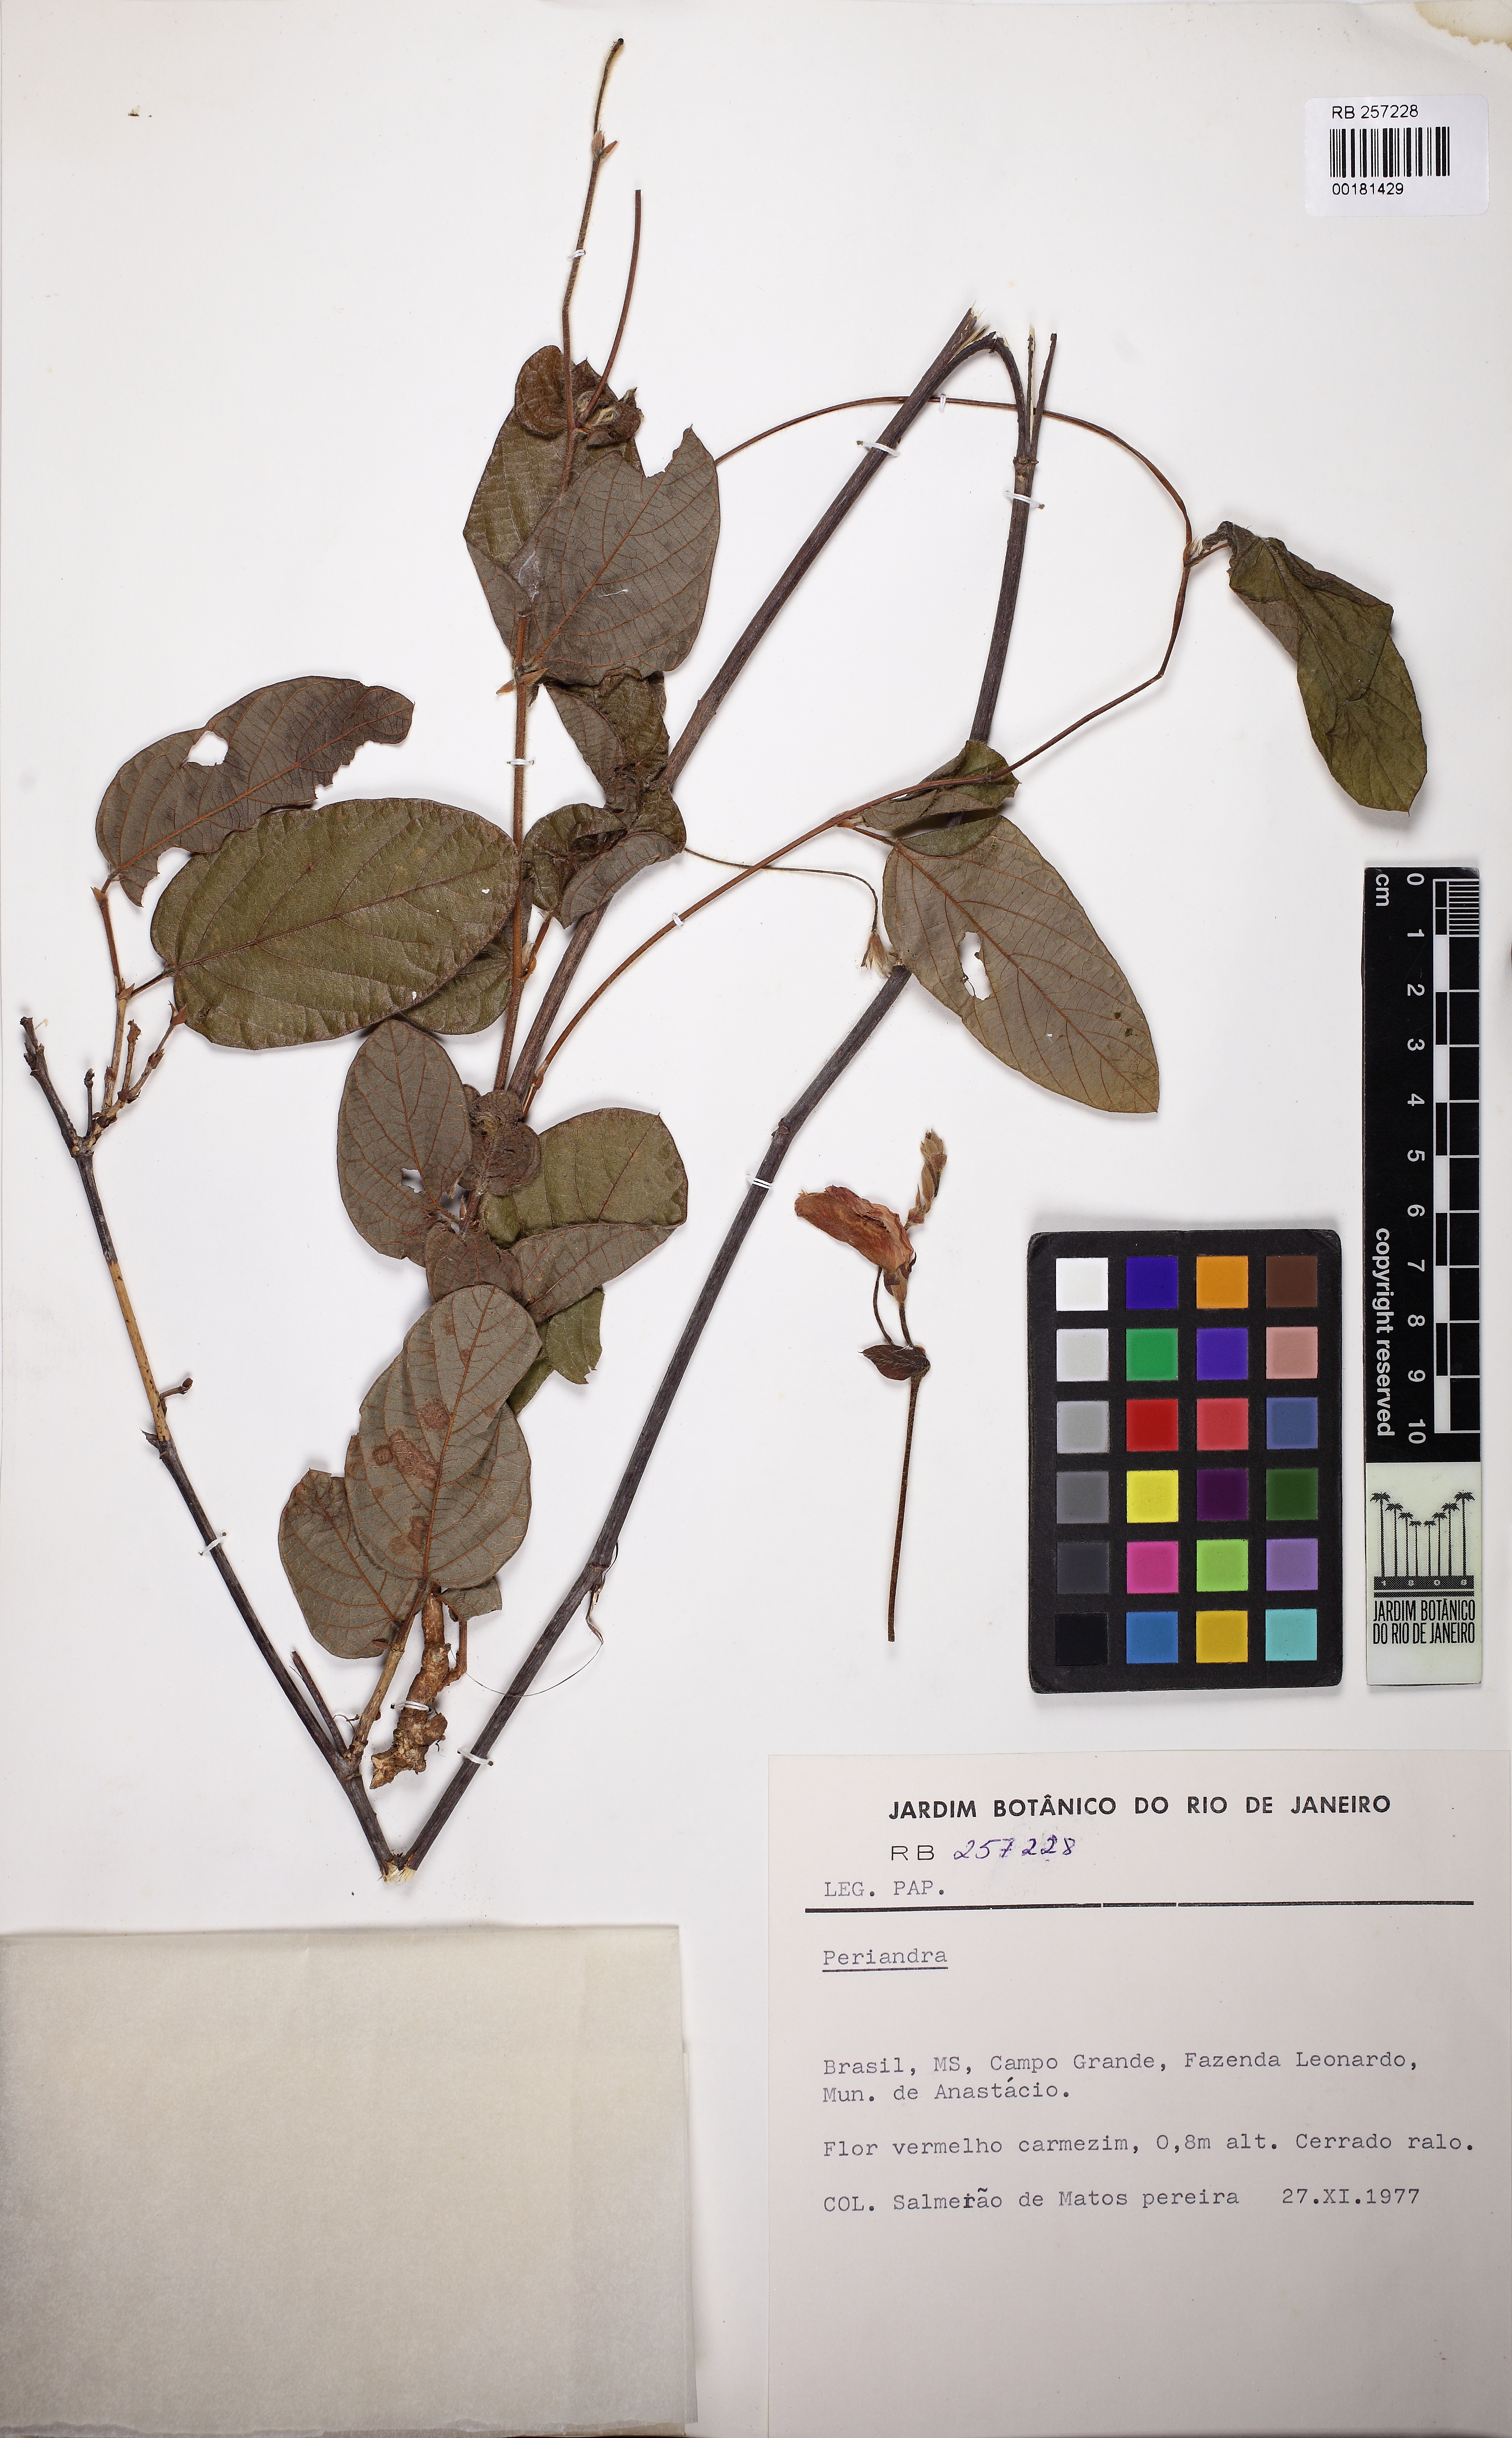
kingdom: Plantae
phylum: Tracheophyta
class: Magnoliopsida
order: Fabales
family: Fabaceae
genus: Periandra
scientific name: Periandra heterophylla
